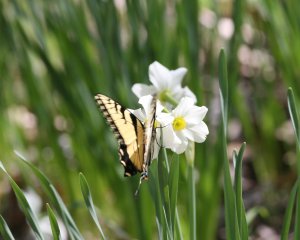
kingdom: Animalia
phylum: Arthropoda
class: Insecta
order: Lepidoptera
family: Papilionidae
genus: Pterourus
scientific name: Pterourus glaucus
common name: Eastern Tiger Swallowtail
